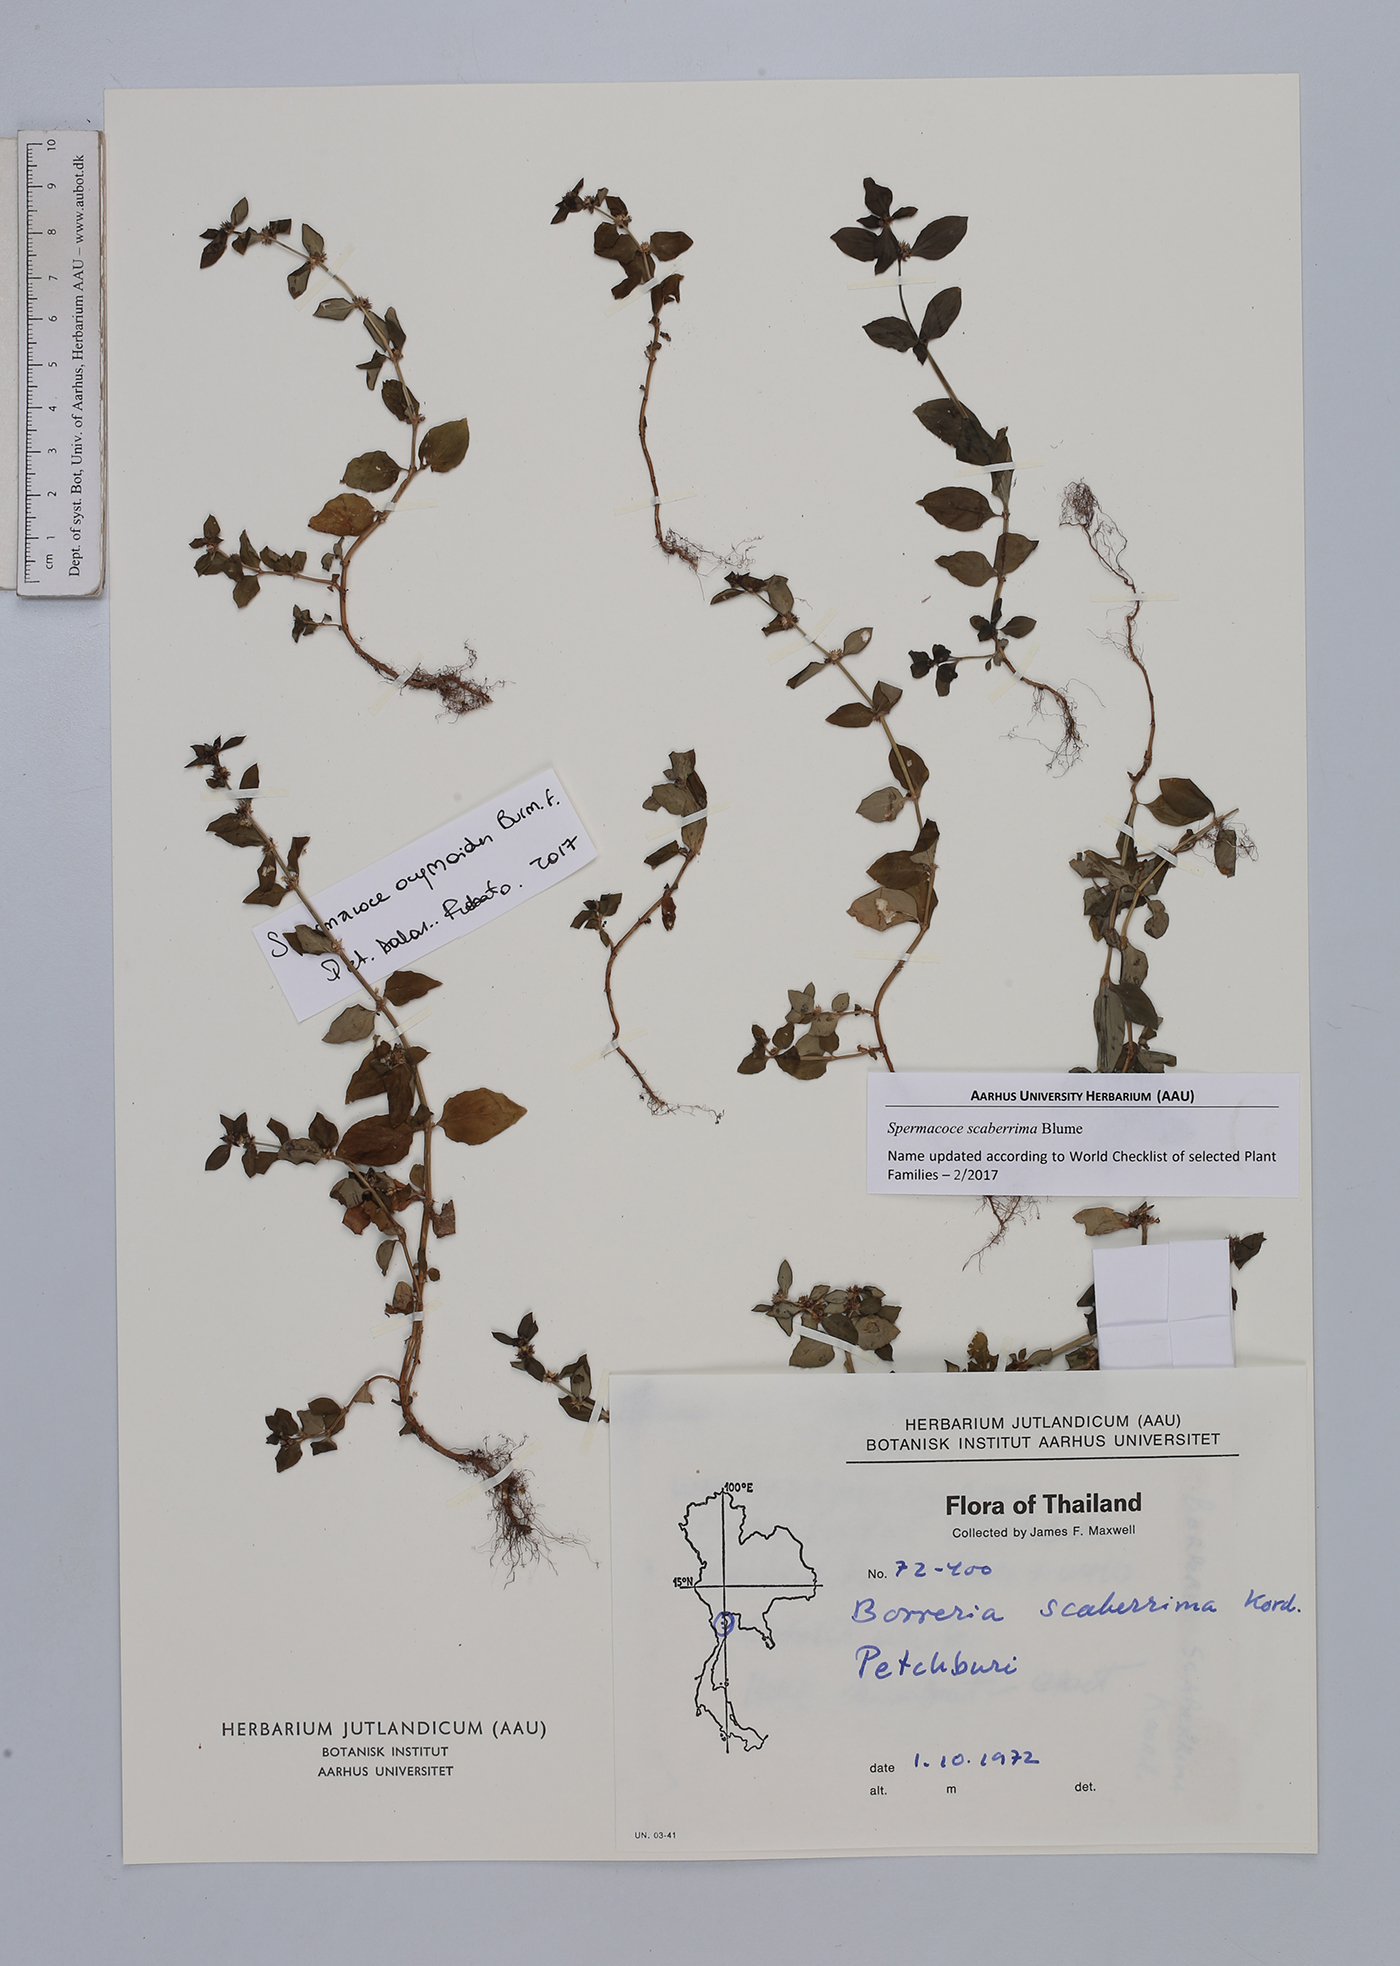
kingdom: Plantae
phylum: Tracheophyta
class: Magnoliopsida
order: Gentianales
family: Rubiaceae
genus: Spermacoce
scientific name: Spermacoce ocymoides
